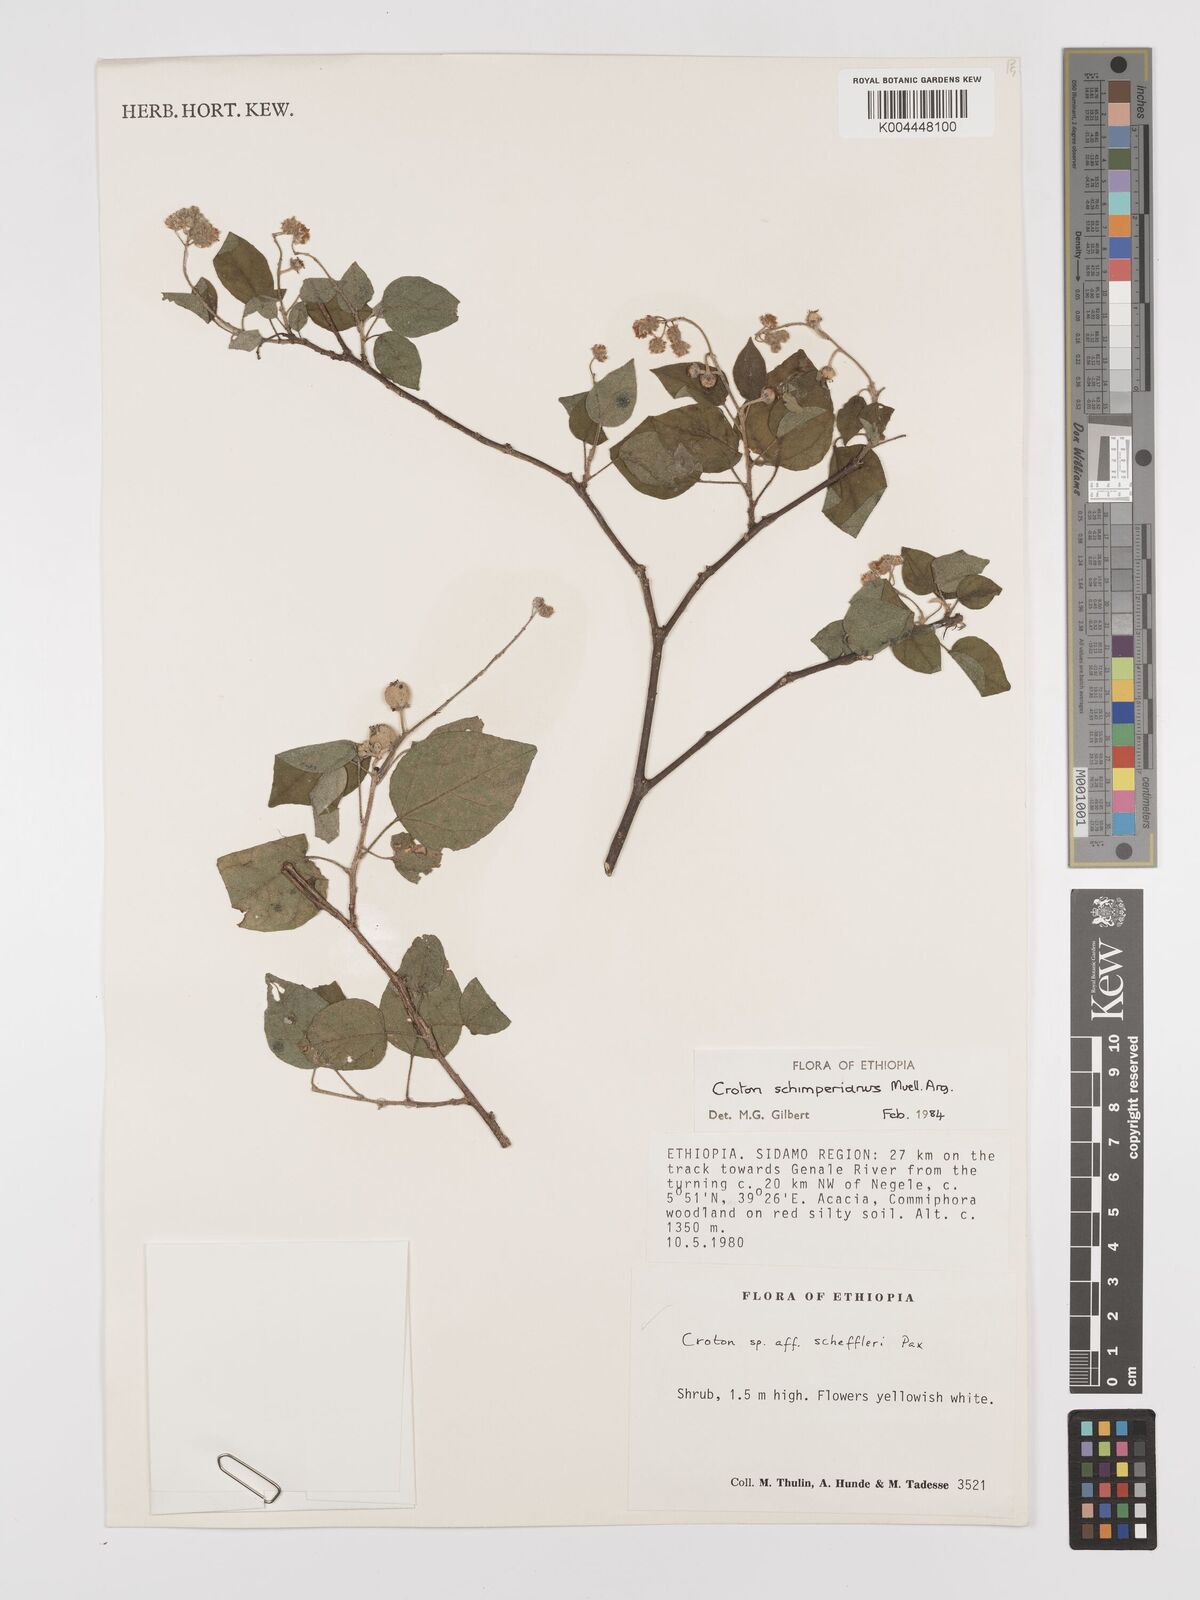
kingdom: Plantae
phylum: Tracheophyta
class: Magnoliopsida
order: Malpighiales
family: Euphorbiaceae
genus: Croton
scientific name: Croton schimperianus
